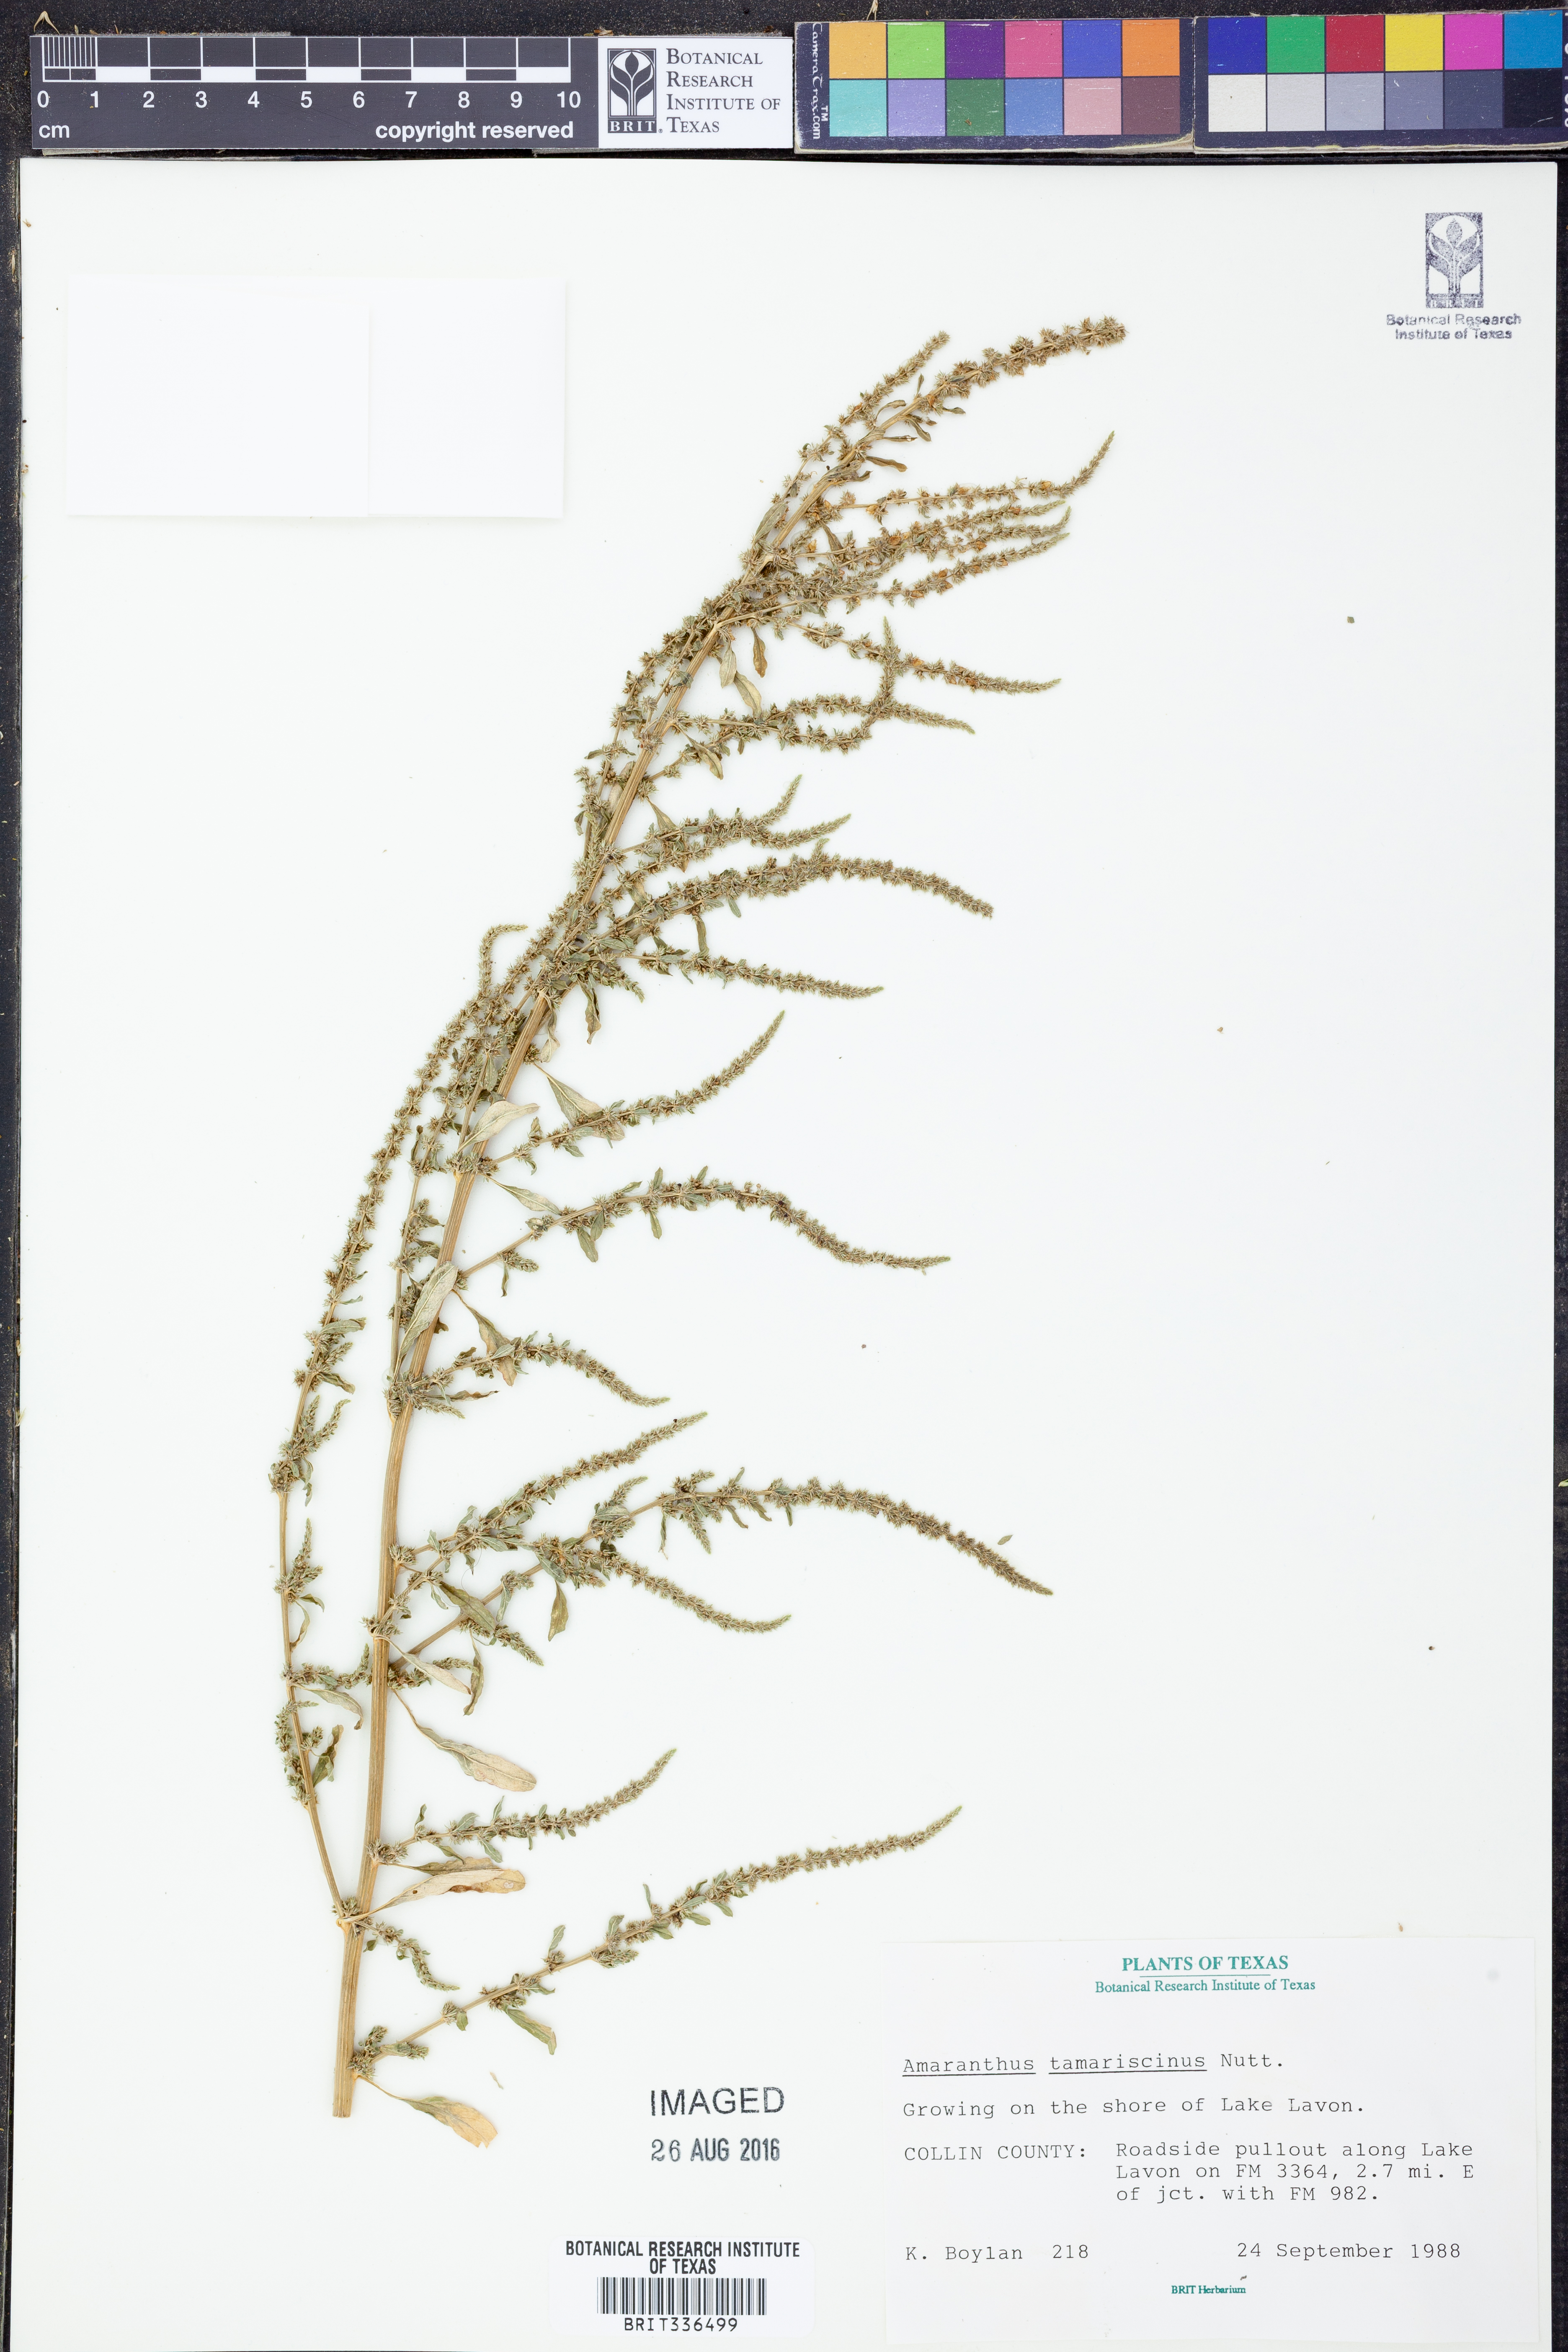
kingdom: Plantae
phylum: Tracheophyta
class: Magnoliopsida
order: Caryophyllales
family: Amaranthaceae
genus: Amaranthus
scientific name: Amaranthus tamariscinus
